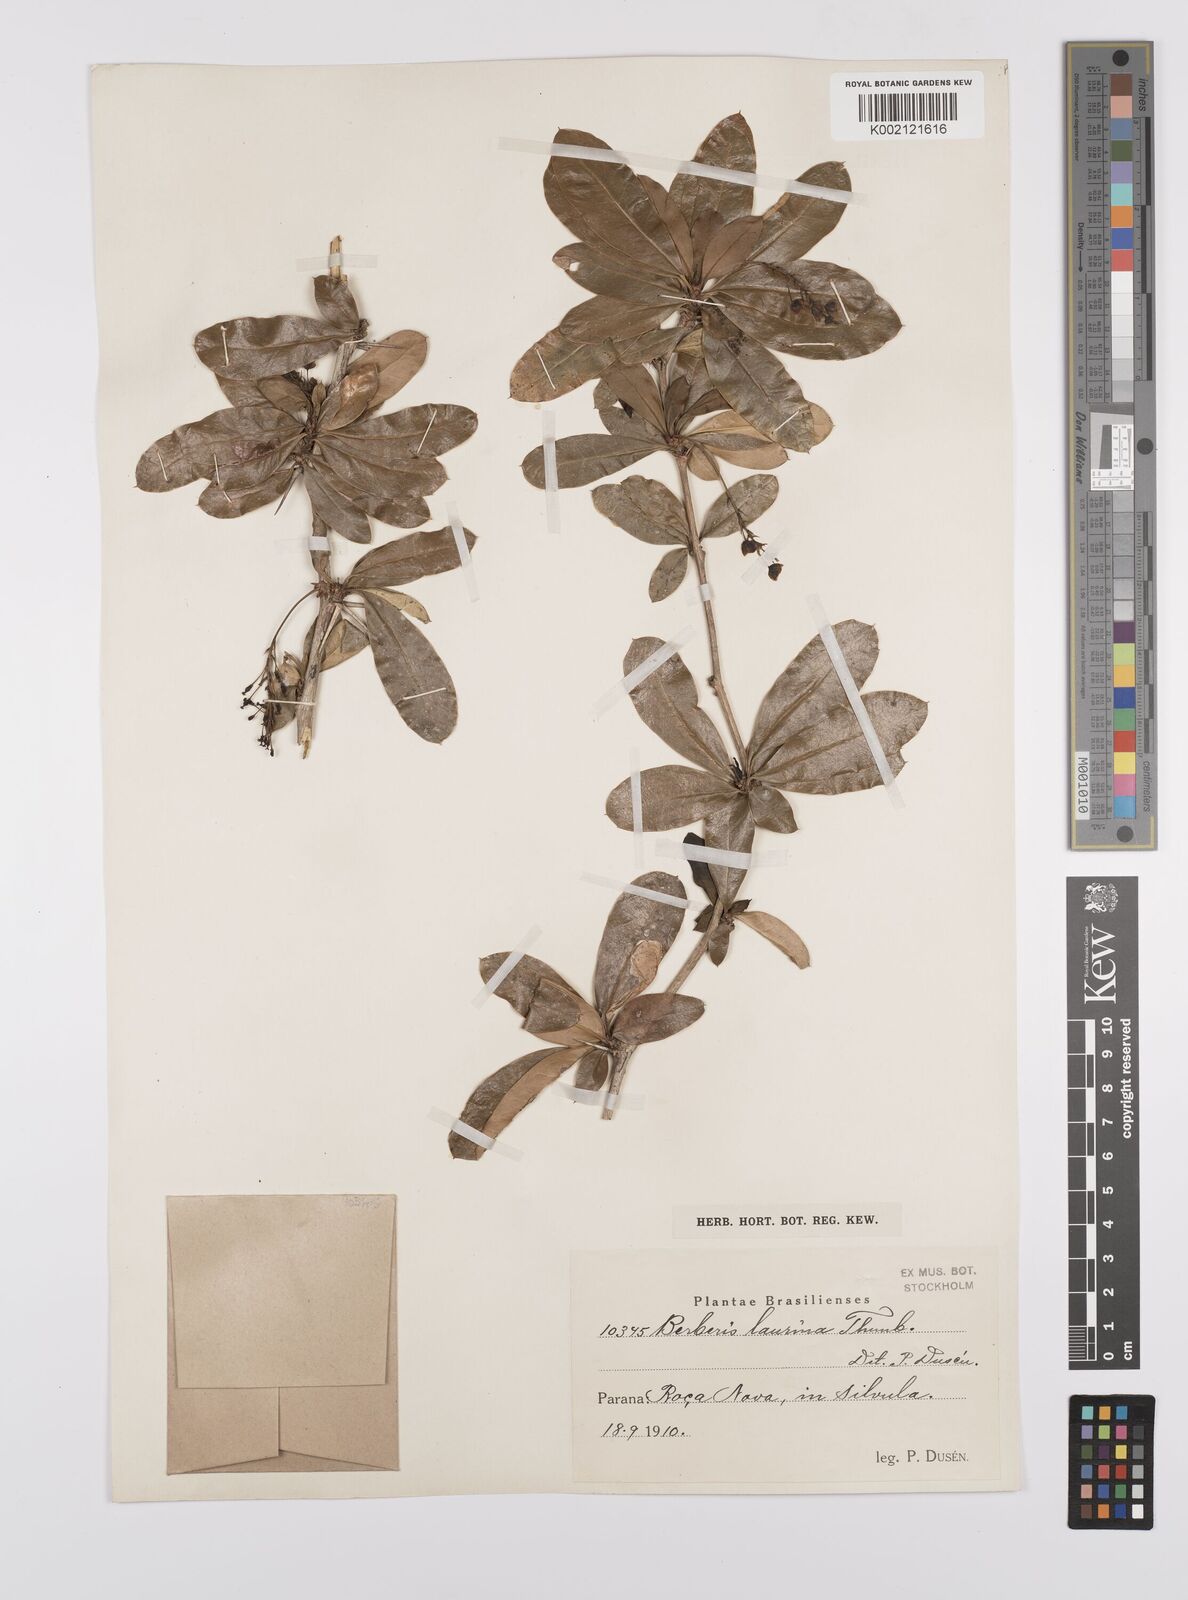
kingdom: Plantae
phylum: Tracheophyta
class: Magnoliopsida
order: Ranunculales
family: Berberidaceae
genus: Berberis
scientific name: Berberis laurina
